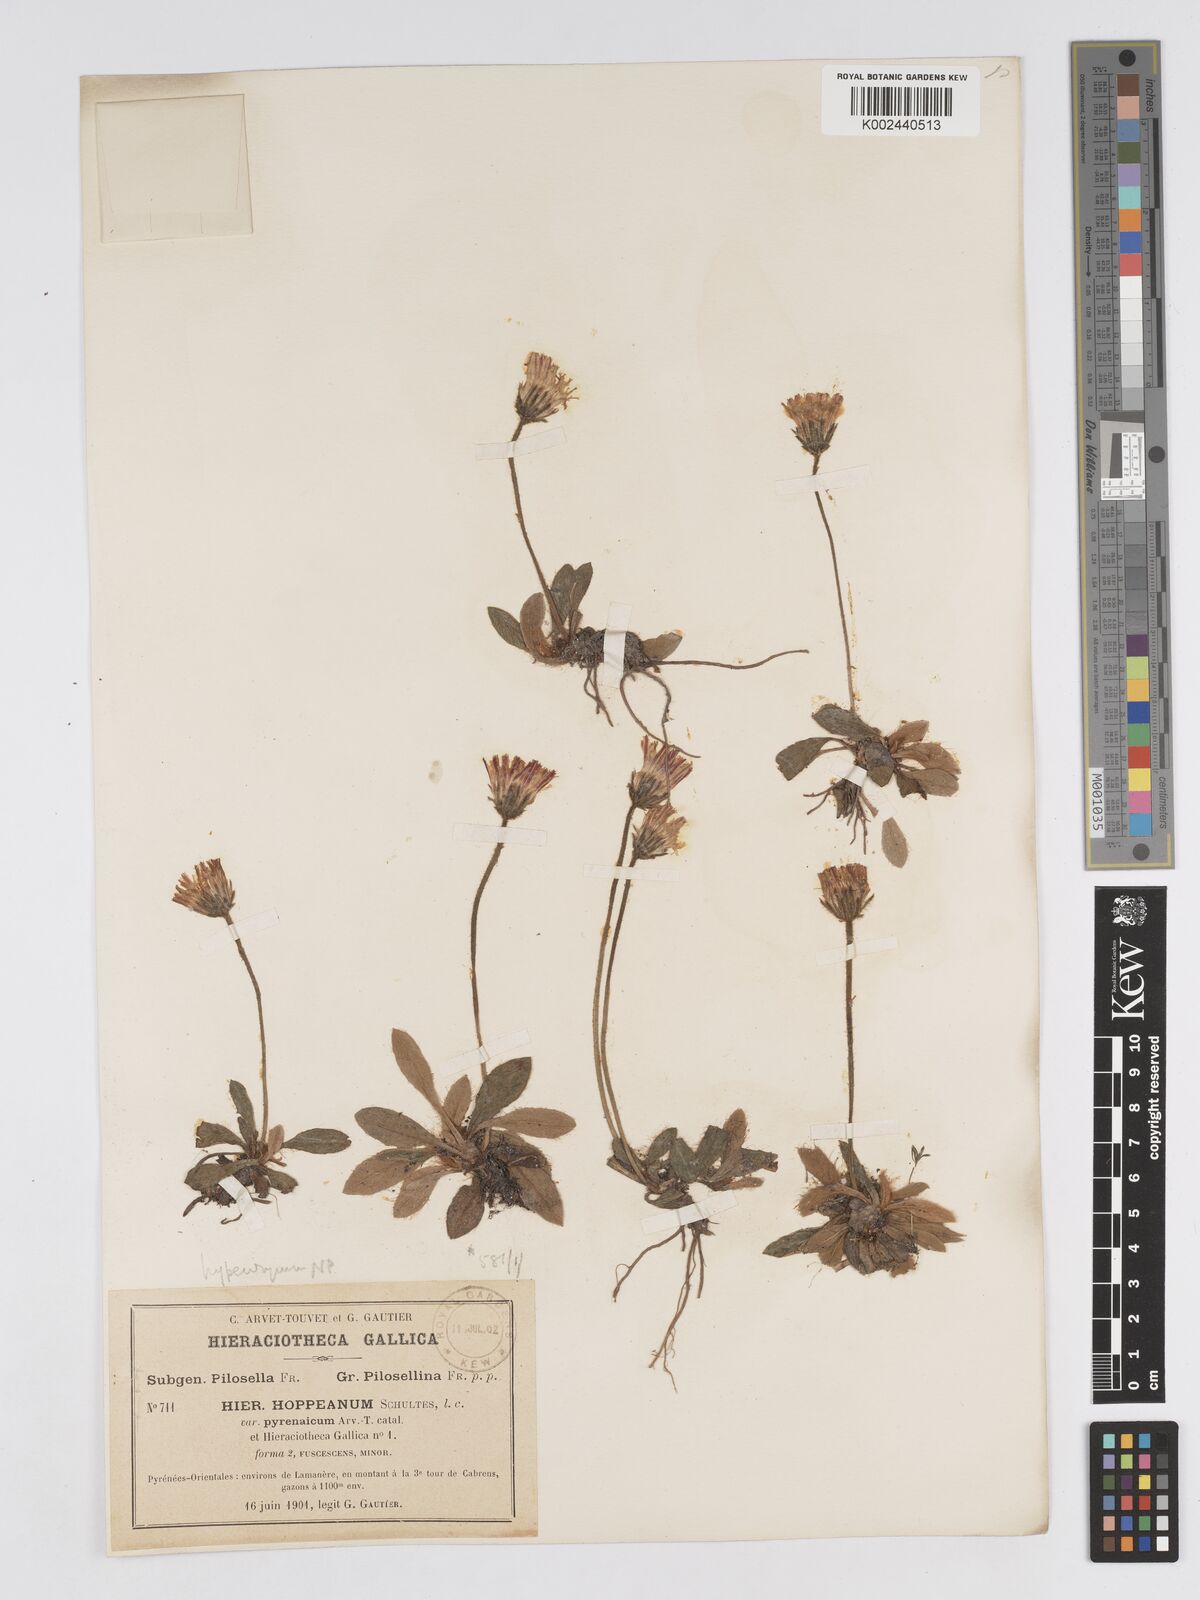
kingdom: Plantae
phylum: Tracheophyta
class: Magnoliopsida
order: Asterales
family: Asteraceae
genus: Pilosella
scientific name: Pilosella hypeurya
